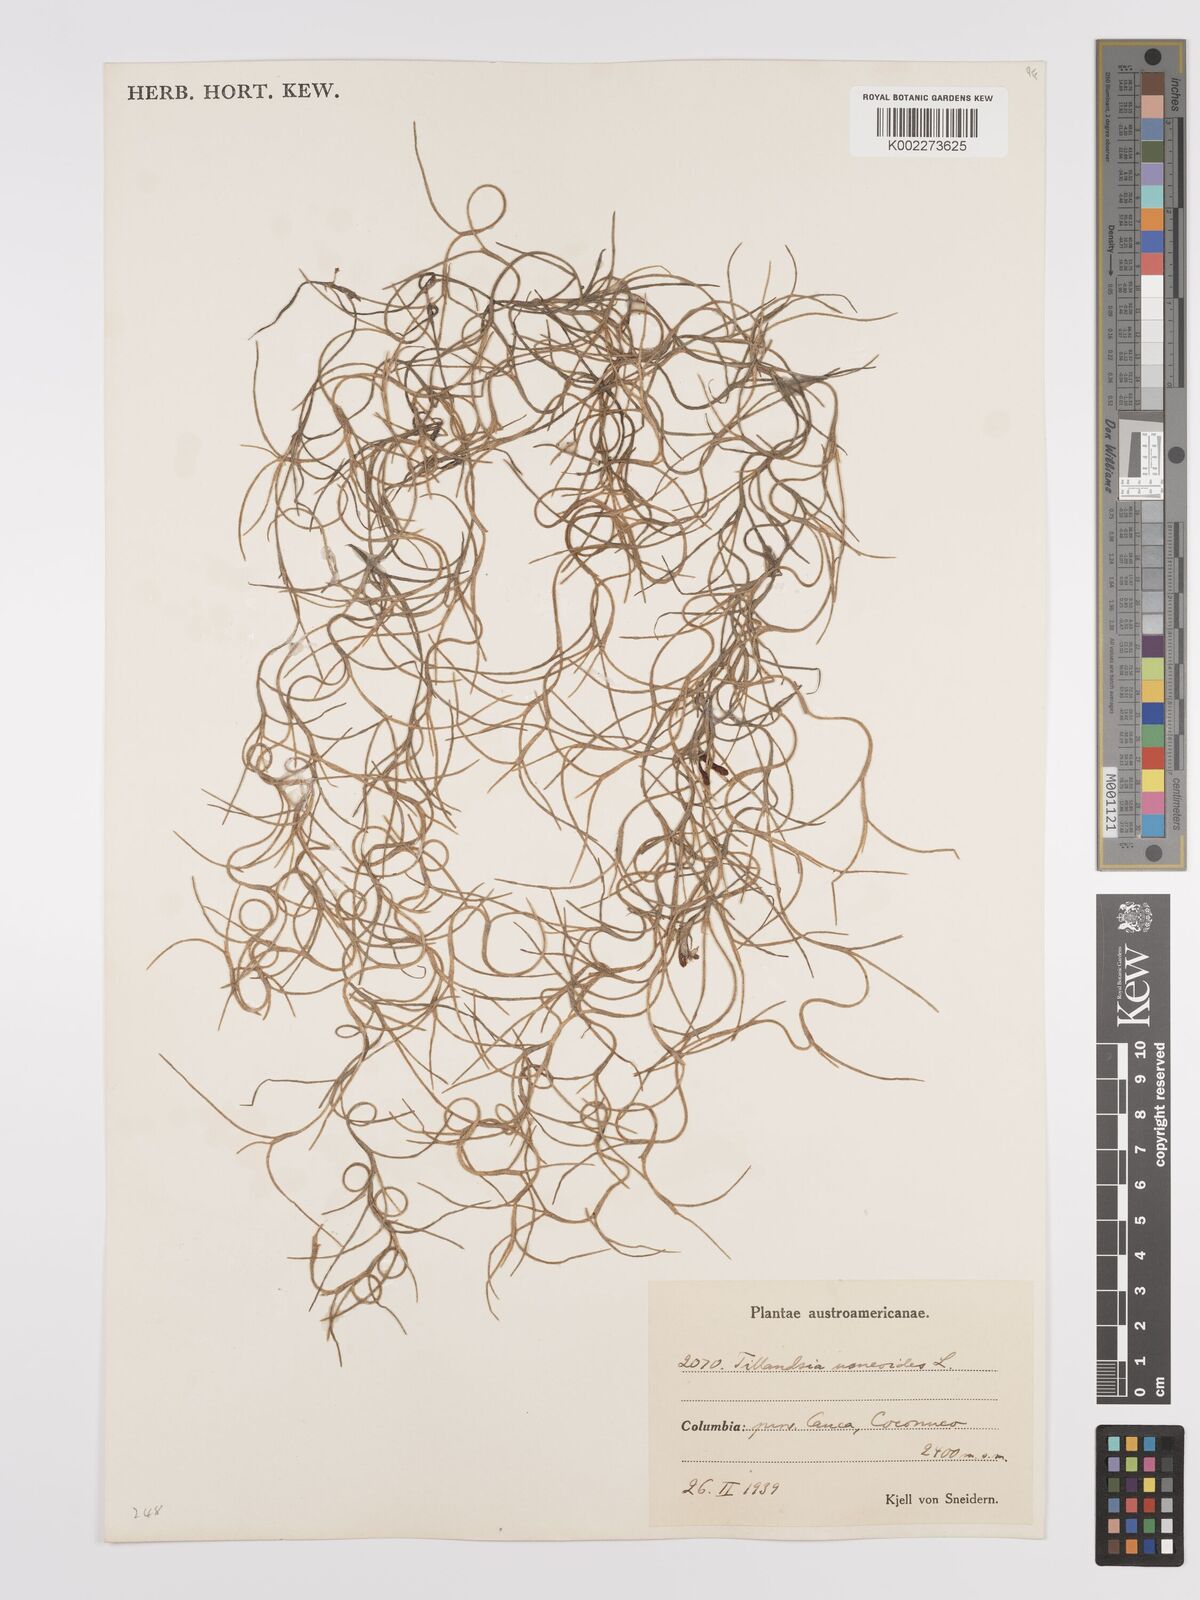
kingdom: Plantae
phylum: Tracheophyta
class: Liliopsida
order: Poales
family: Bromeliaceae
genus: Tillandsia
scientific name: Tillandsia usneoides
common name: Spanish moss
